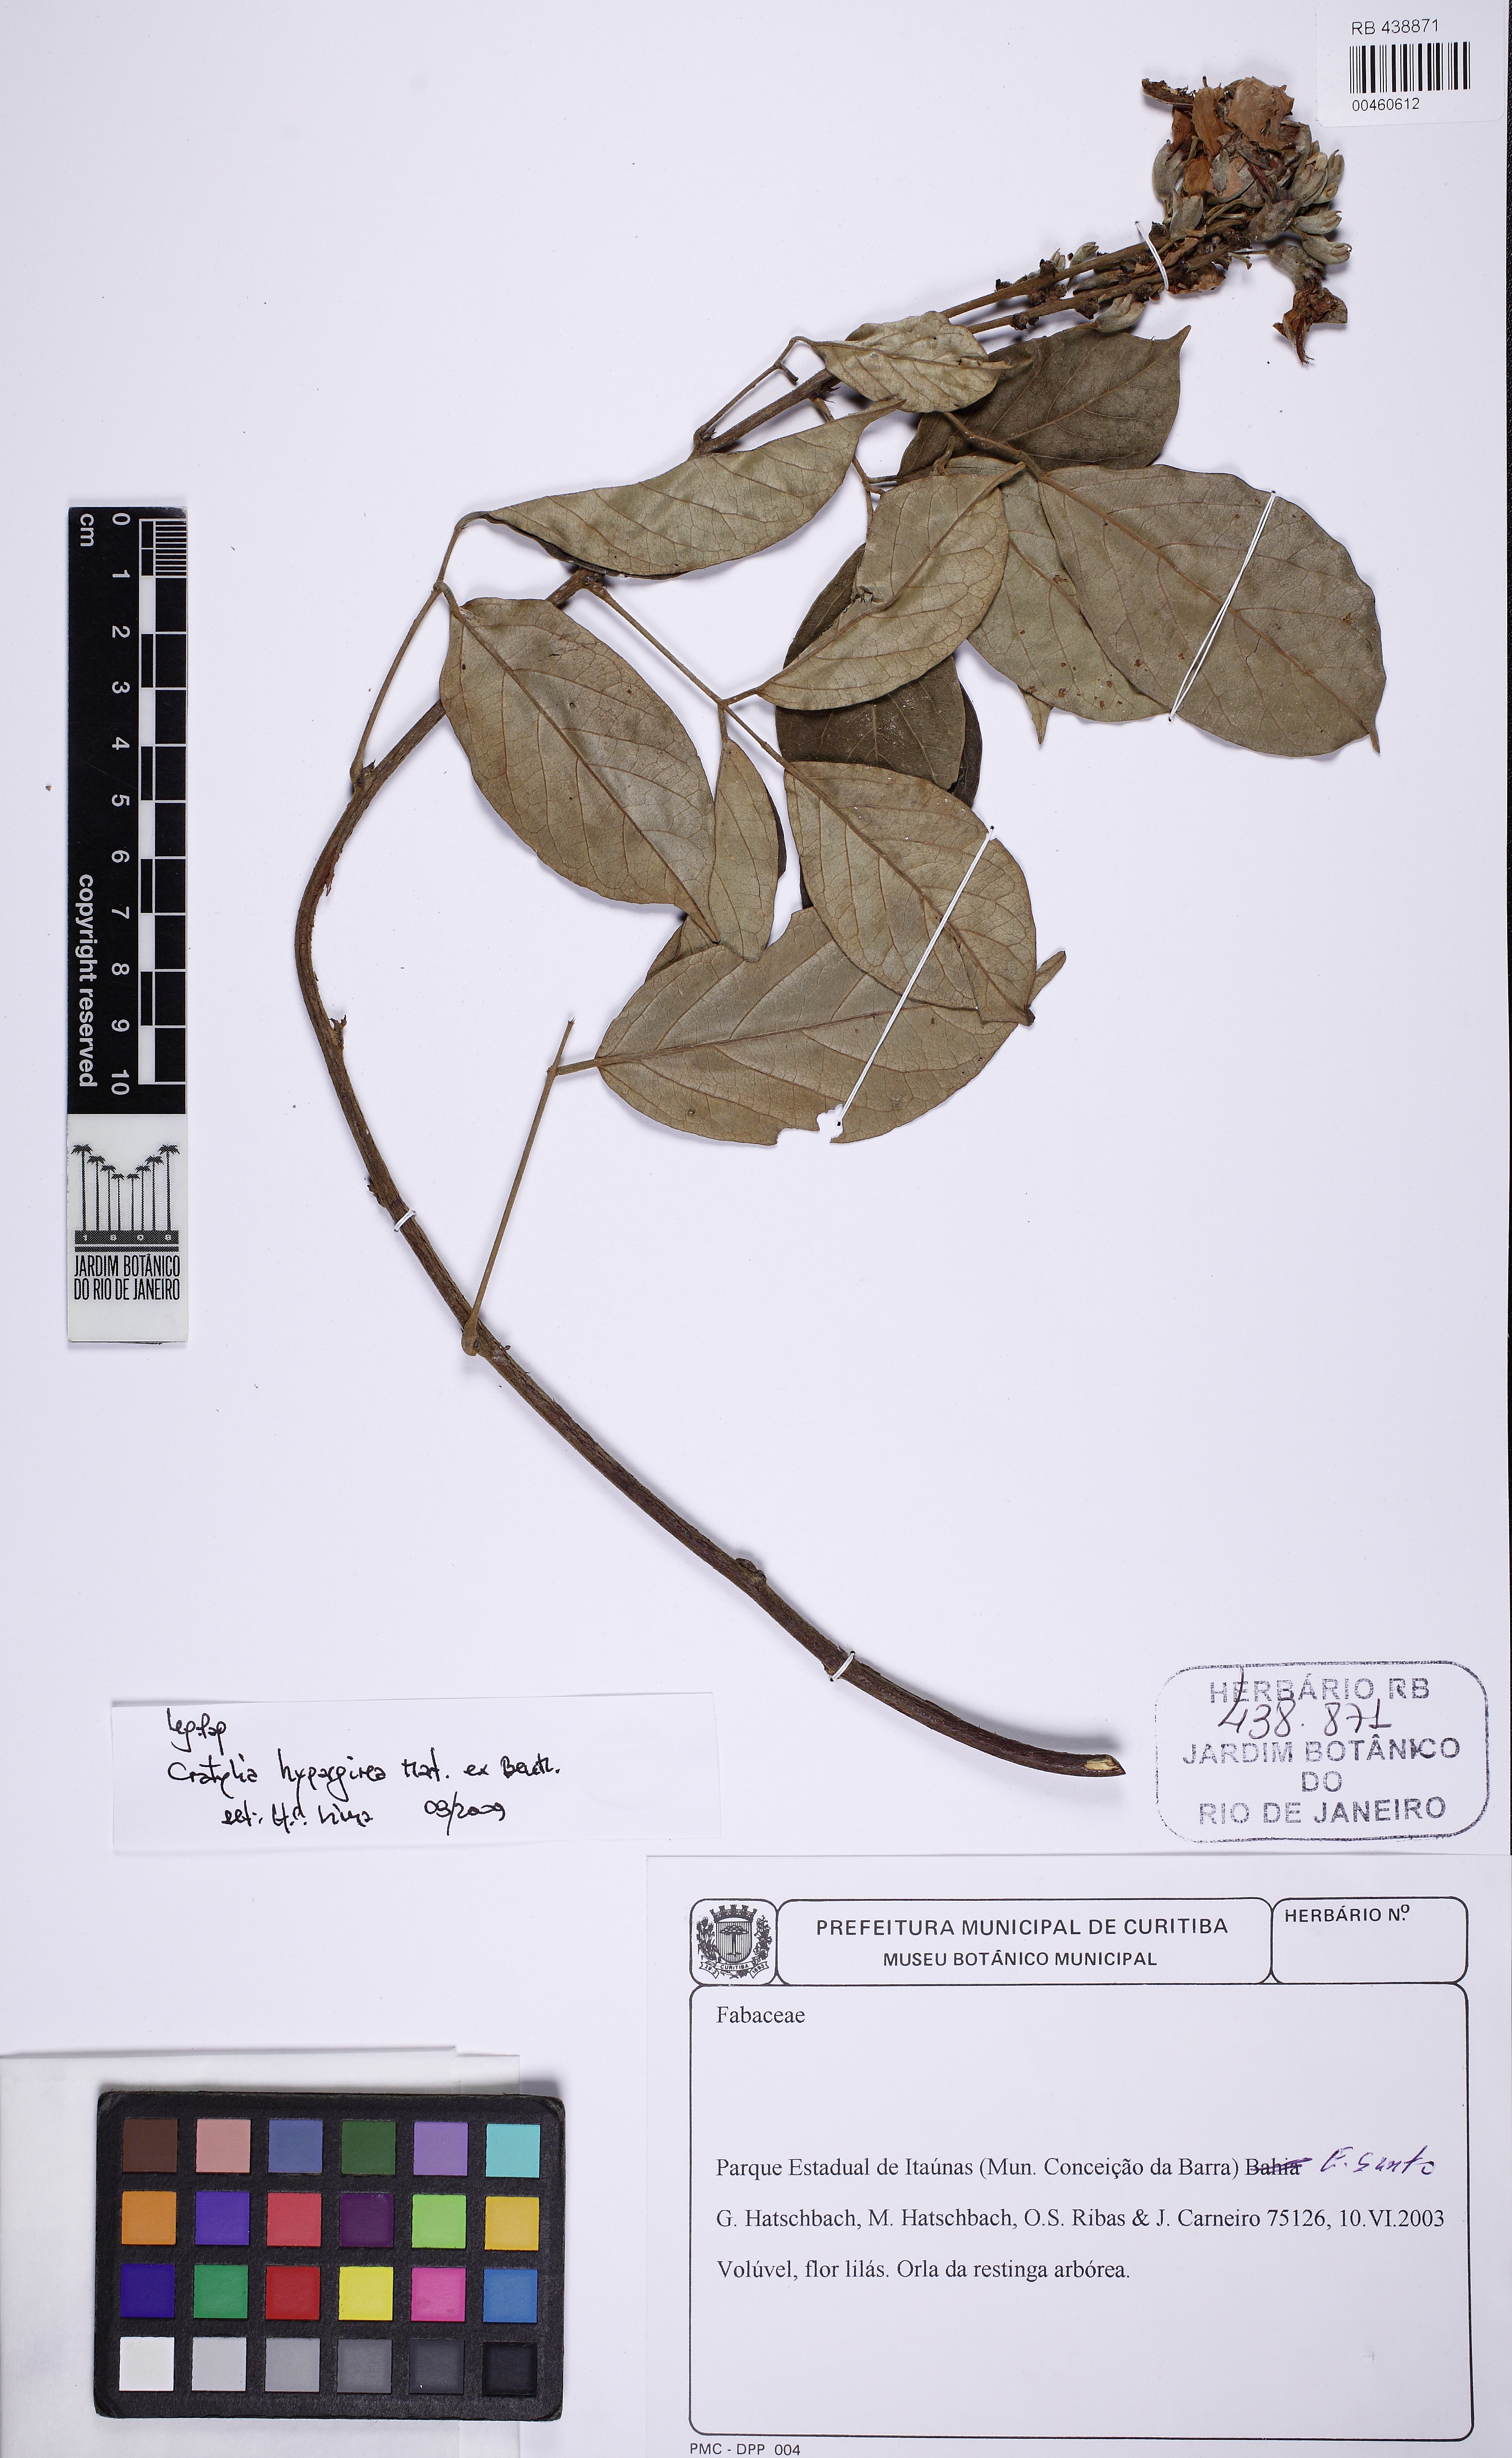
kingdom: Plantae
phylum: Tracheophyta
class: Magnoliopsida
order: Fabales
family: Fabaceae
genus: Cratylia
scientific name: Cratylia hypargyrea
